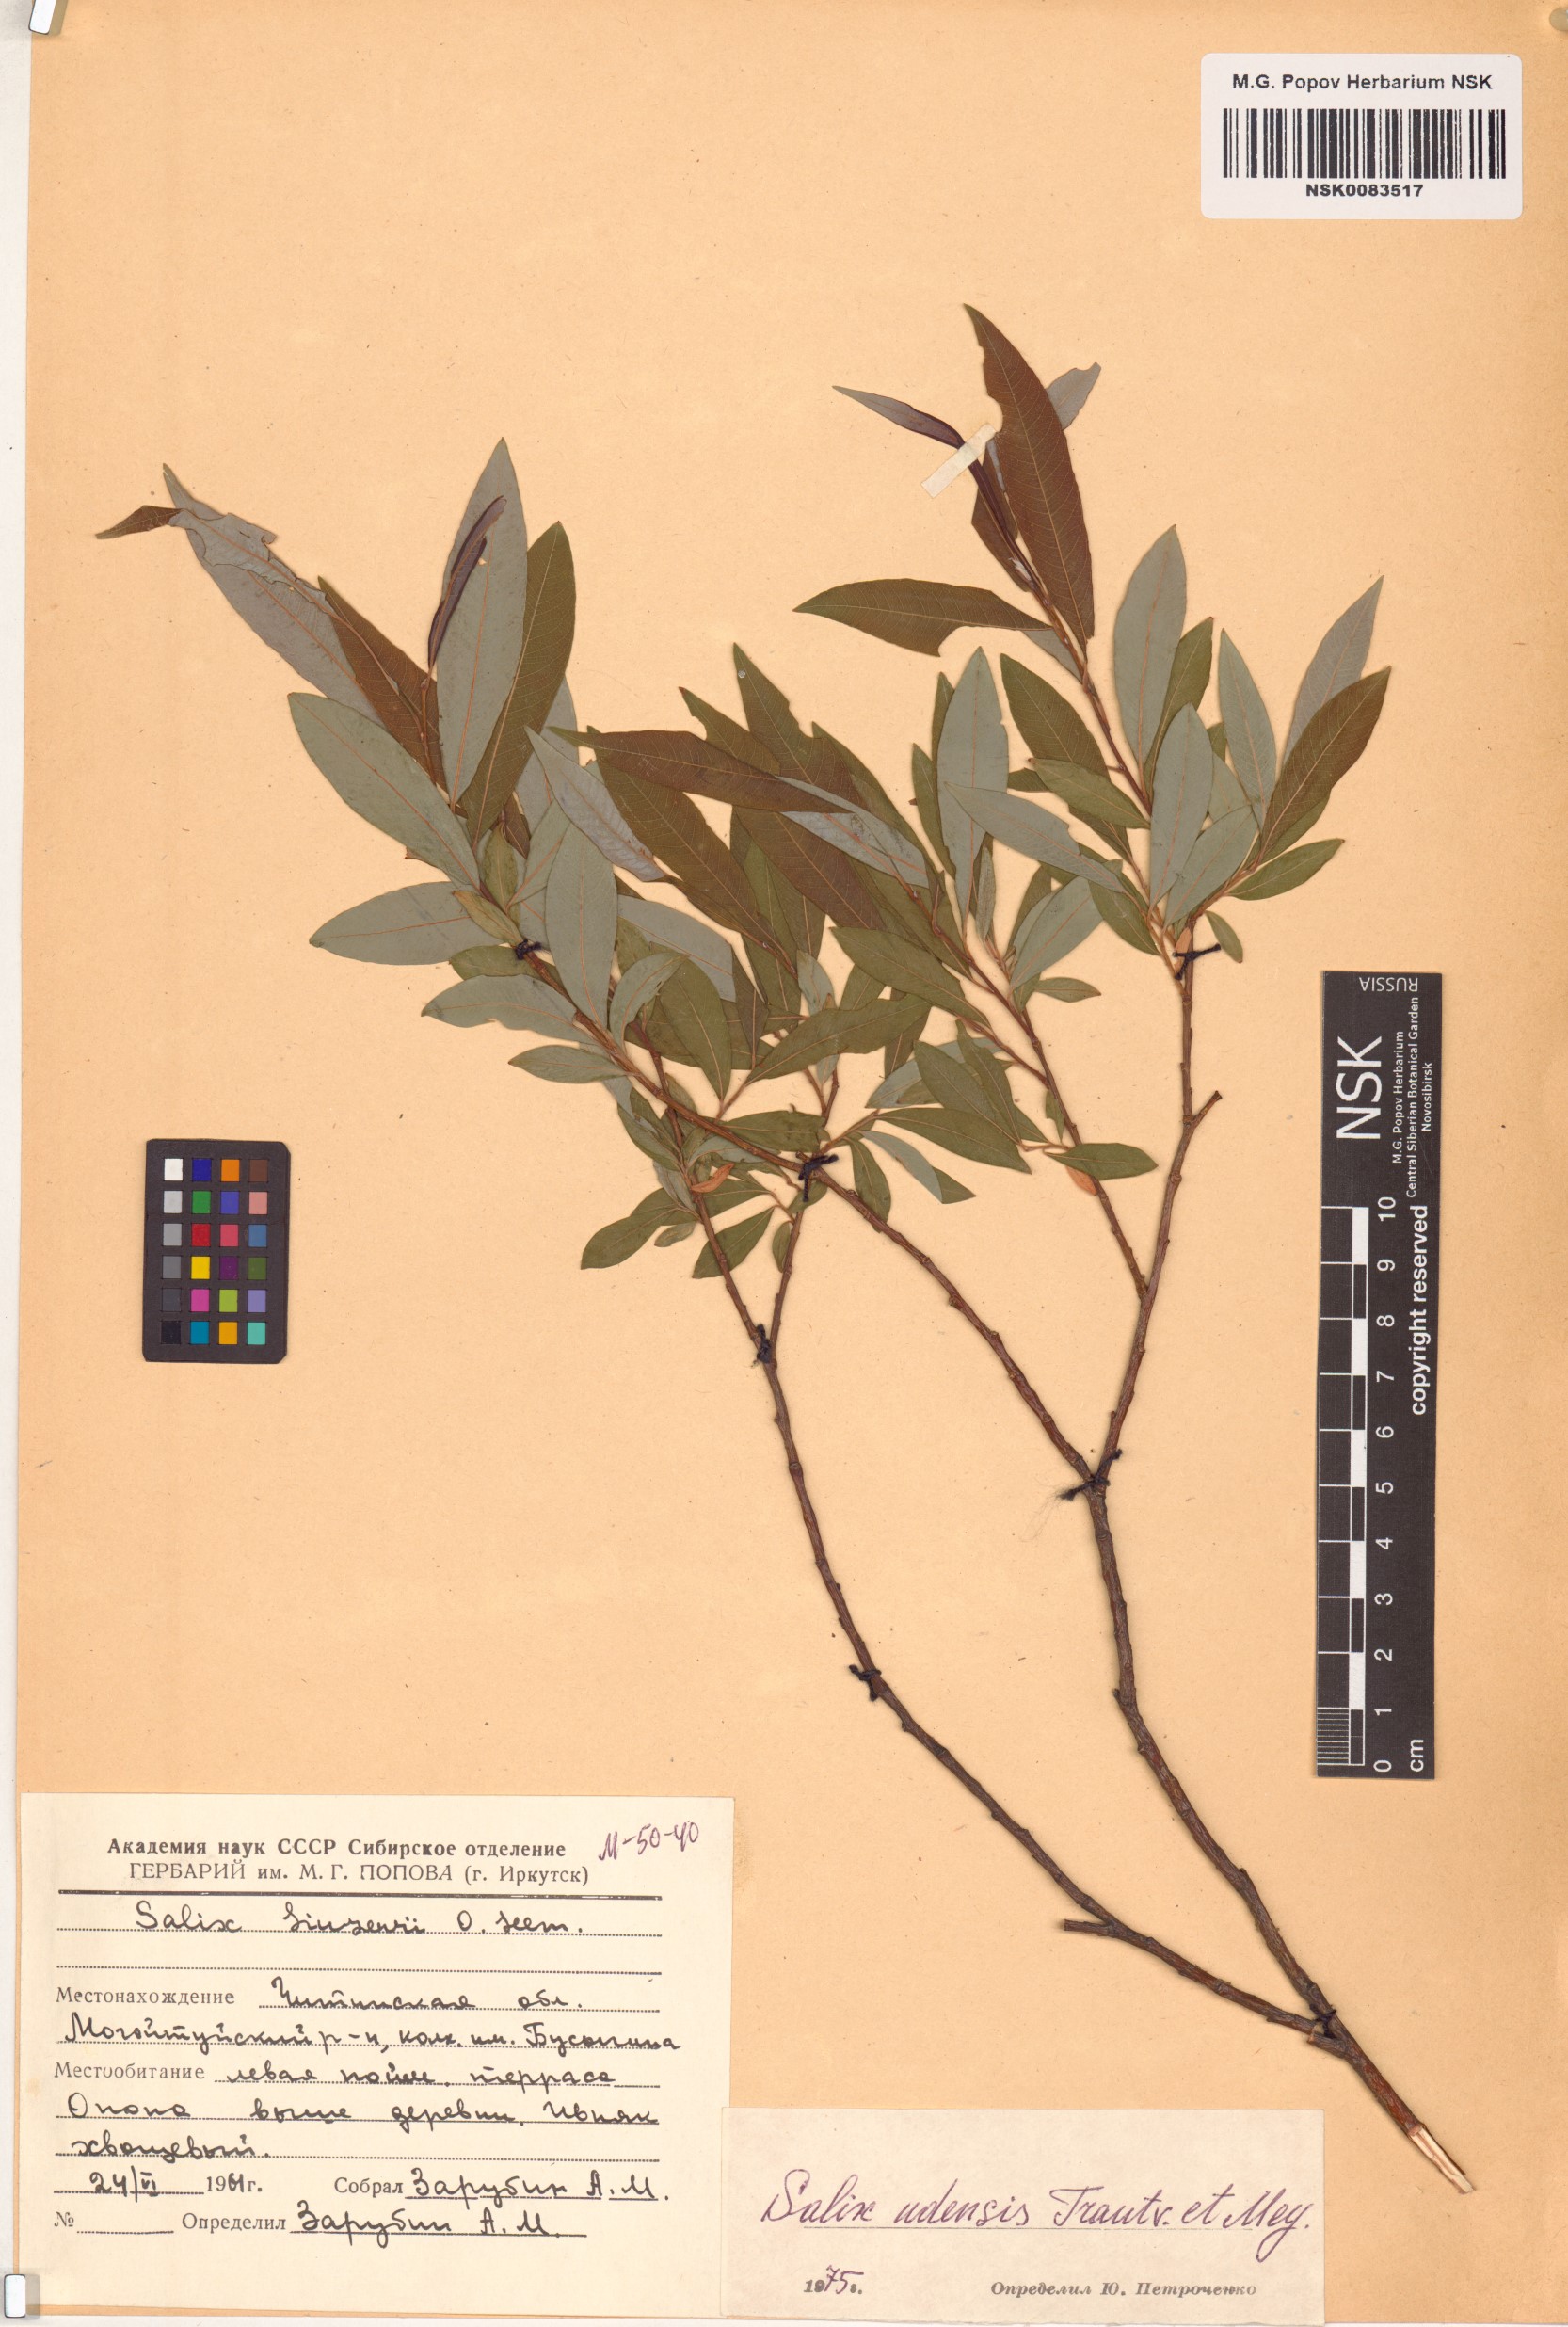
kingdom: Plantae
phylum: Tracheophyta
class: Magnoliopsida
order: Malpighiales
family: Salicaceae
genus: Salix
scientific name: Salix udensis
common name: Sachalin willow
